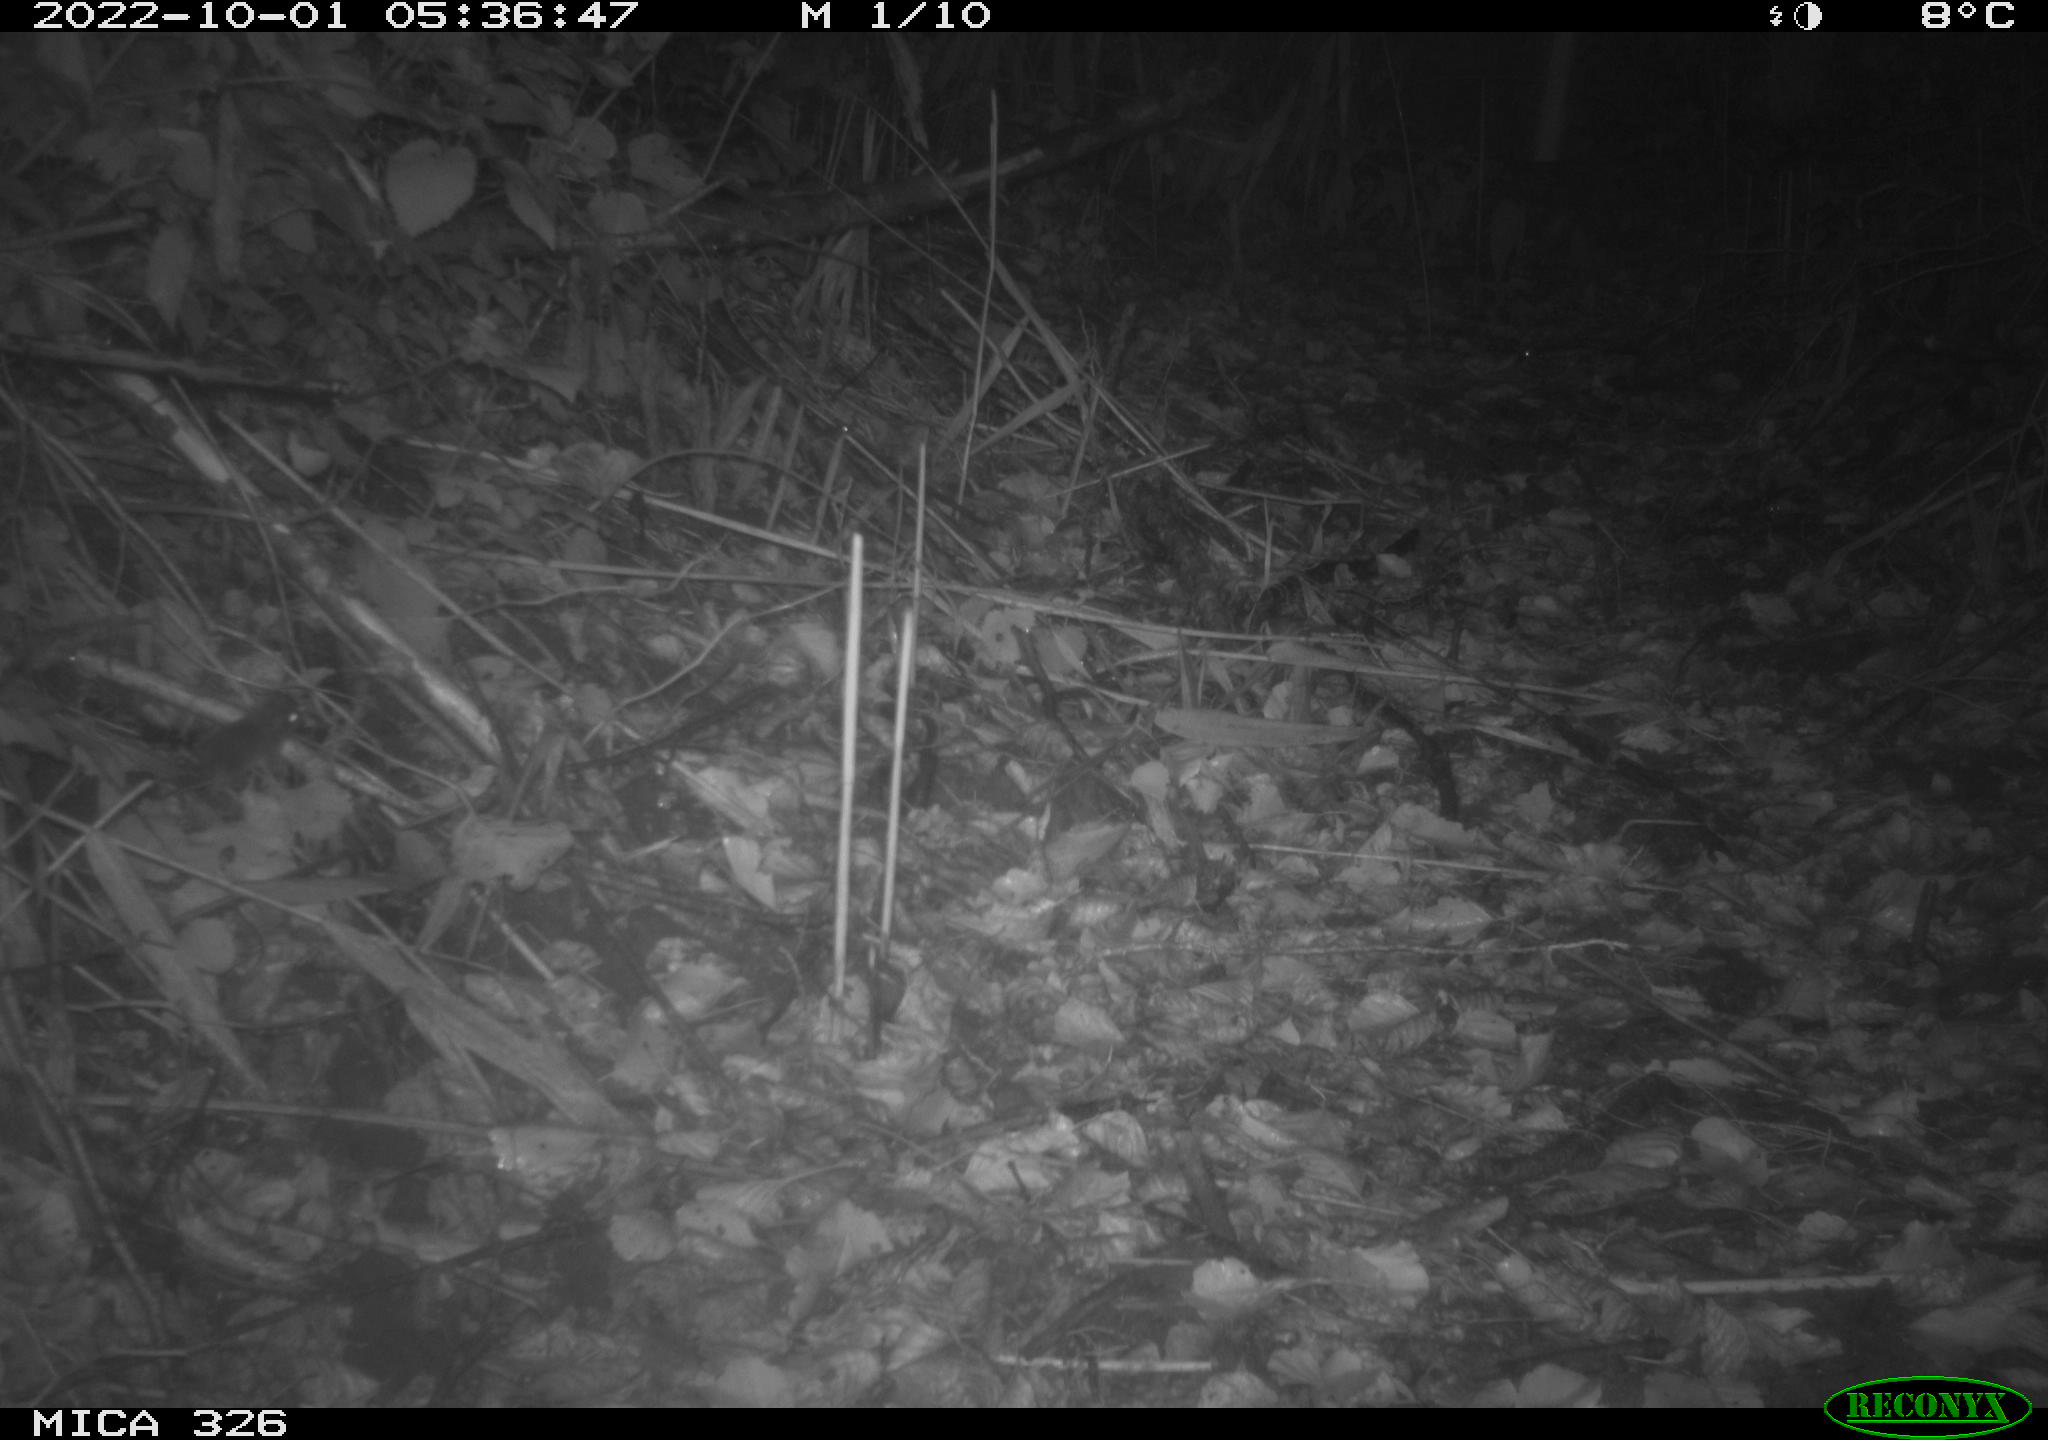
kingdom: Animalia
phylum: Chordata
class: Mammalia
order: Rodentia
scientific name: Rodentia
